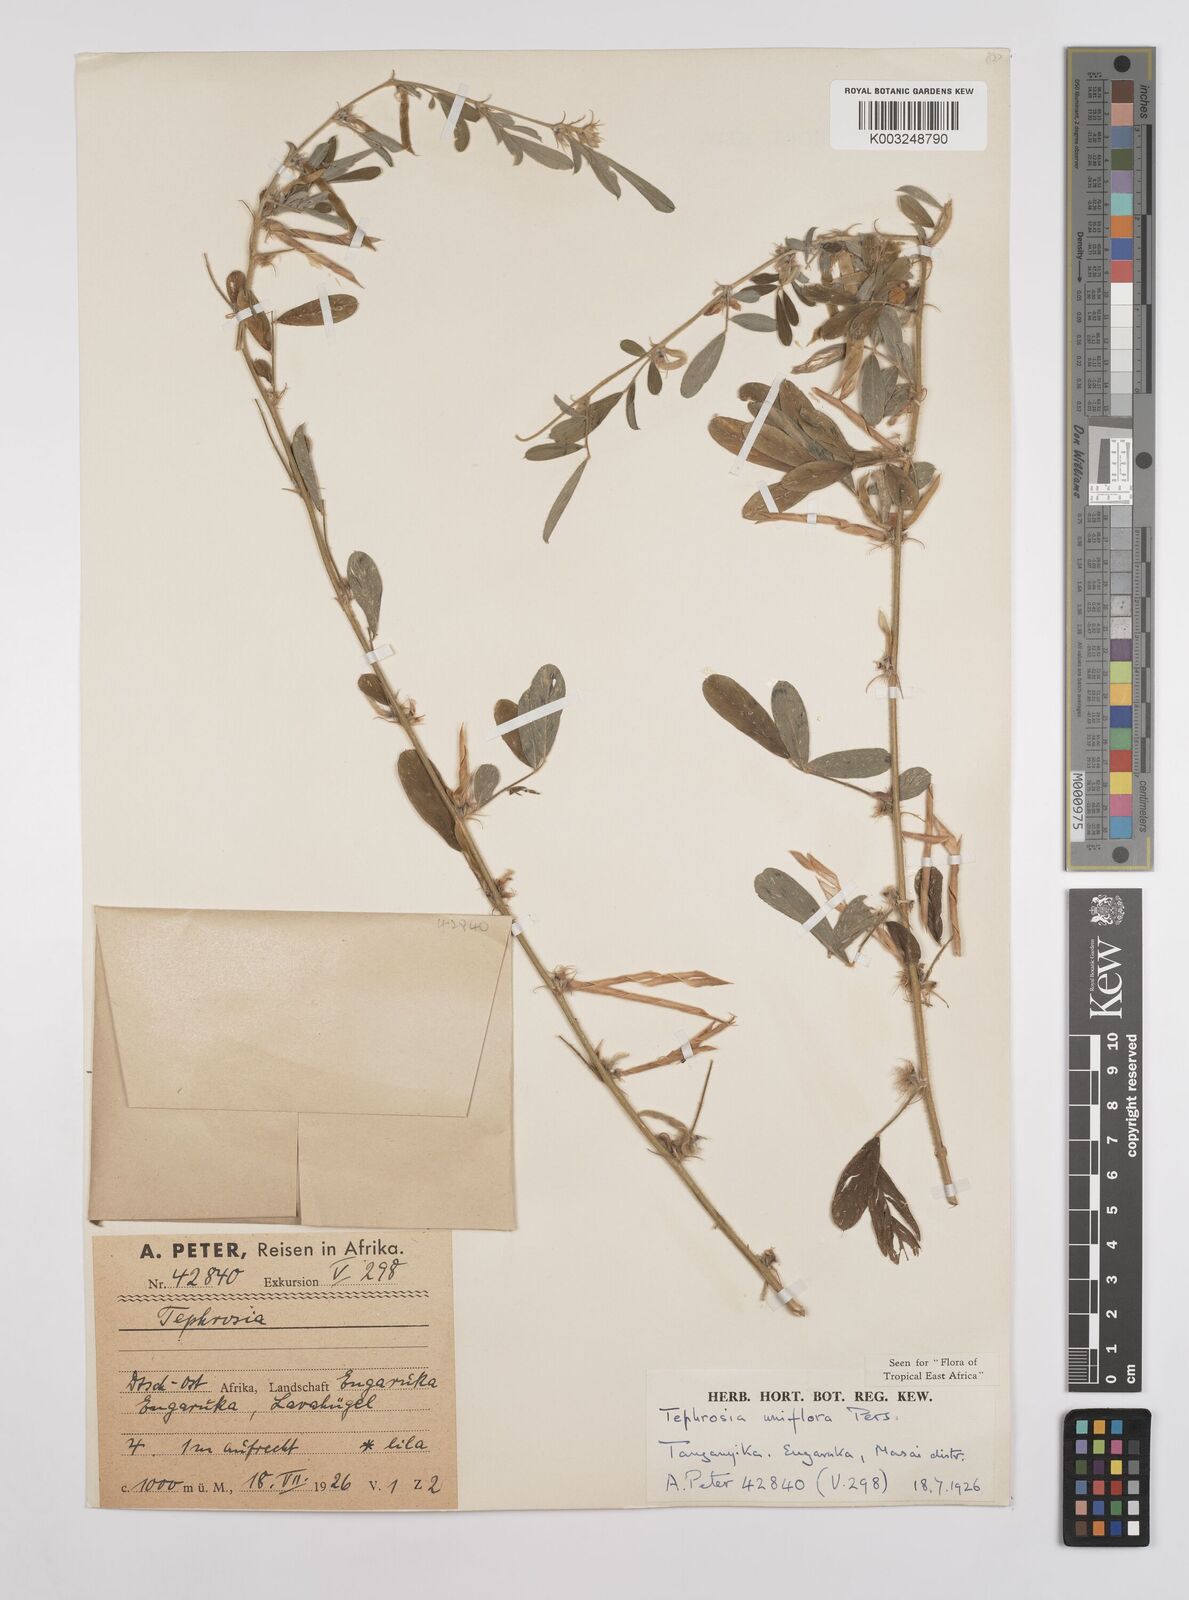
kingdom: Plantae
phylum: Tracheophyta
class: Magnoliopsida
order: Fabales
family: Fabaceae
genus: Tephrosia
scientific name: Tephrosia uniflora
